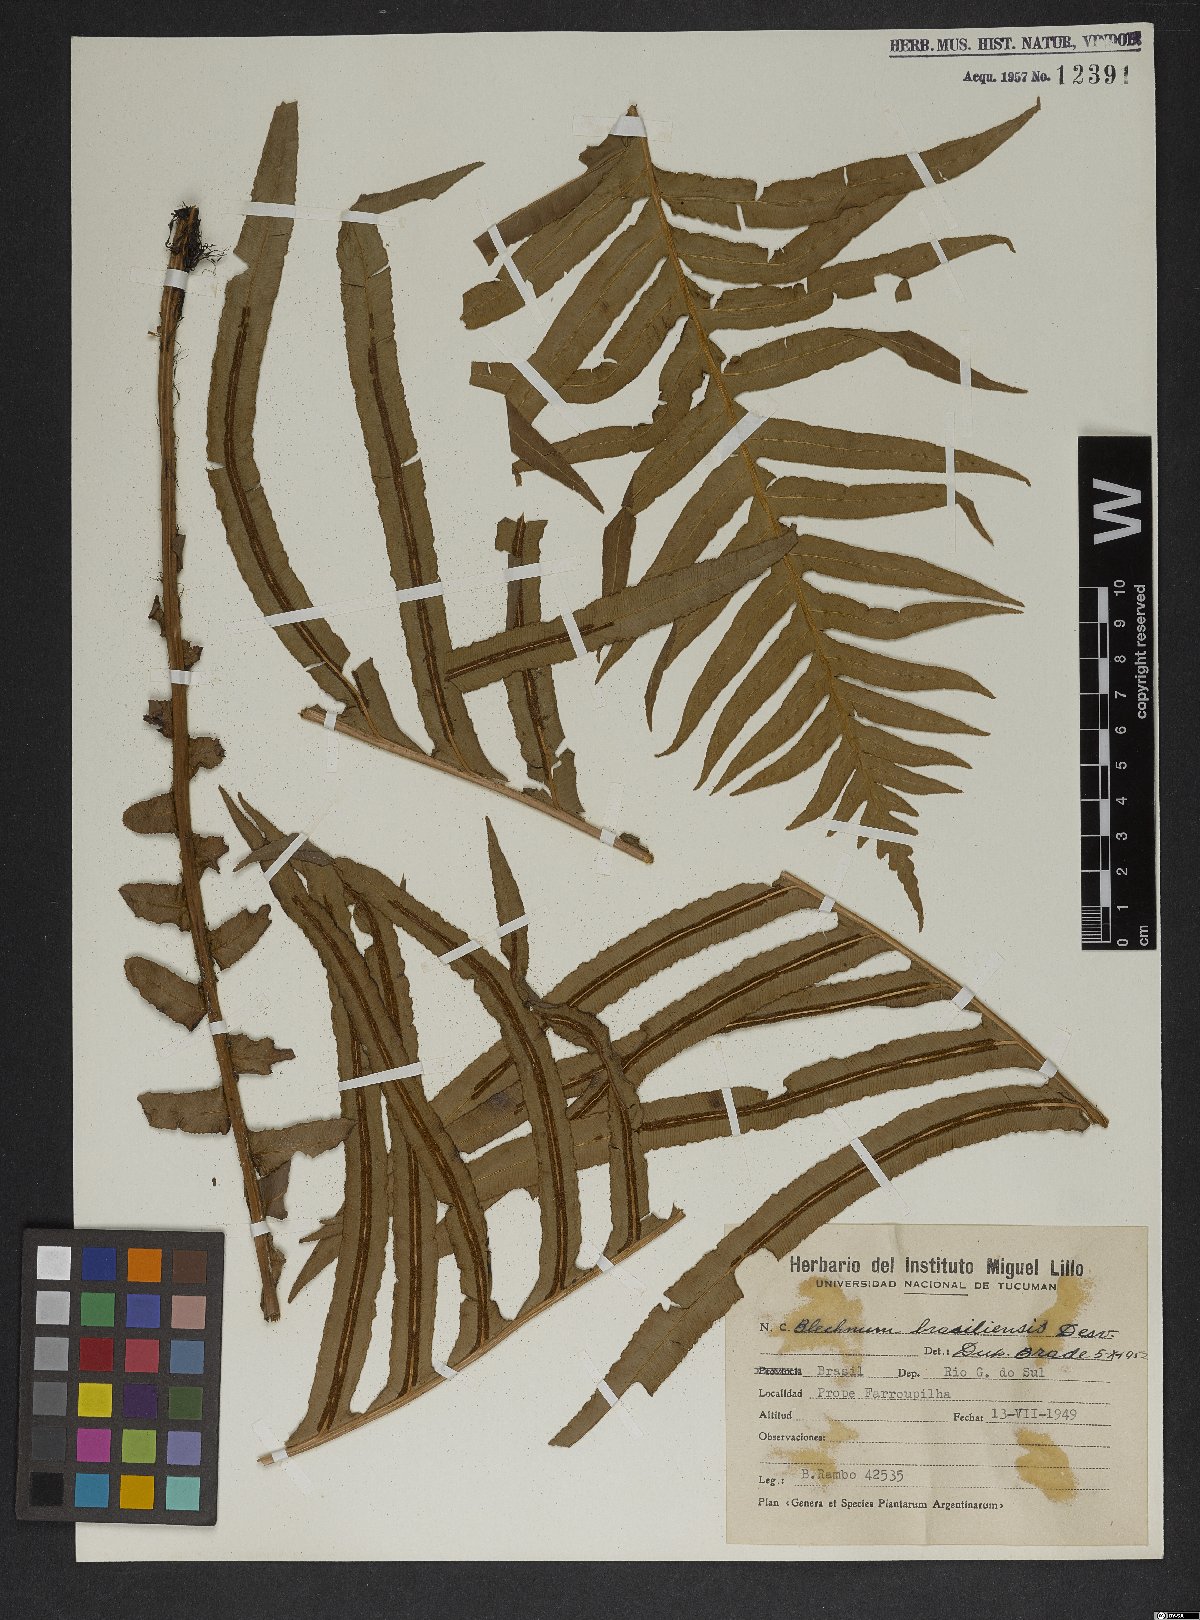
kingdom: Plantae
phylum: Tracheophyta
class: Polypodiopsida
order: Polypodiales
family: Blechnaceae
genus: Neoblechnum
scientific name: Neoblechnum brasiliense
